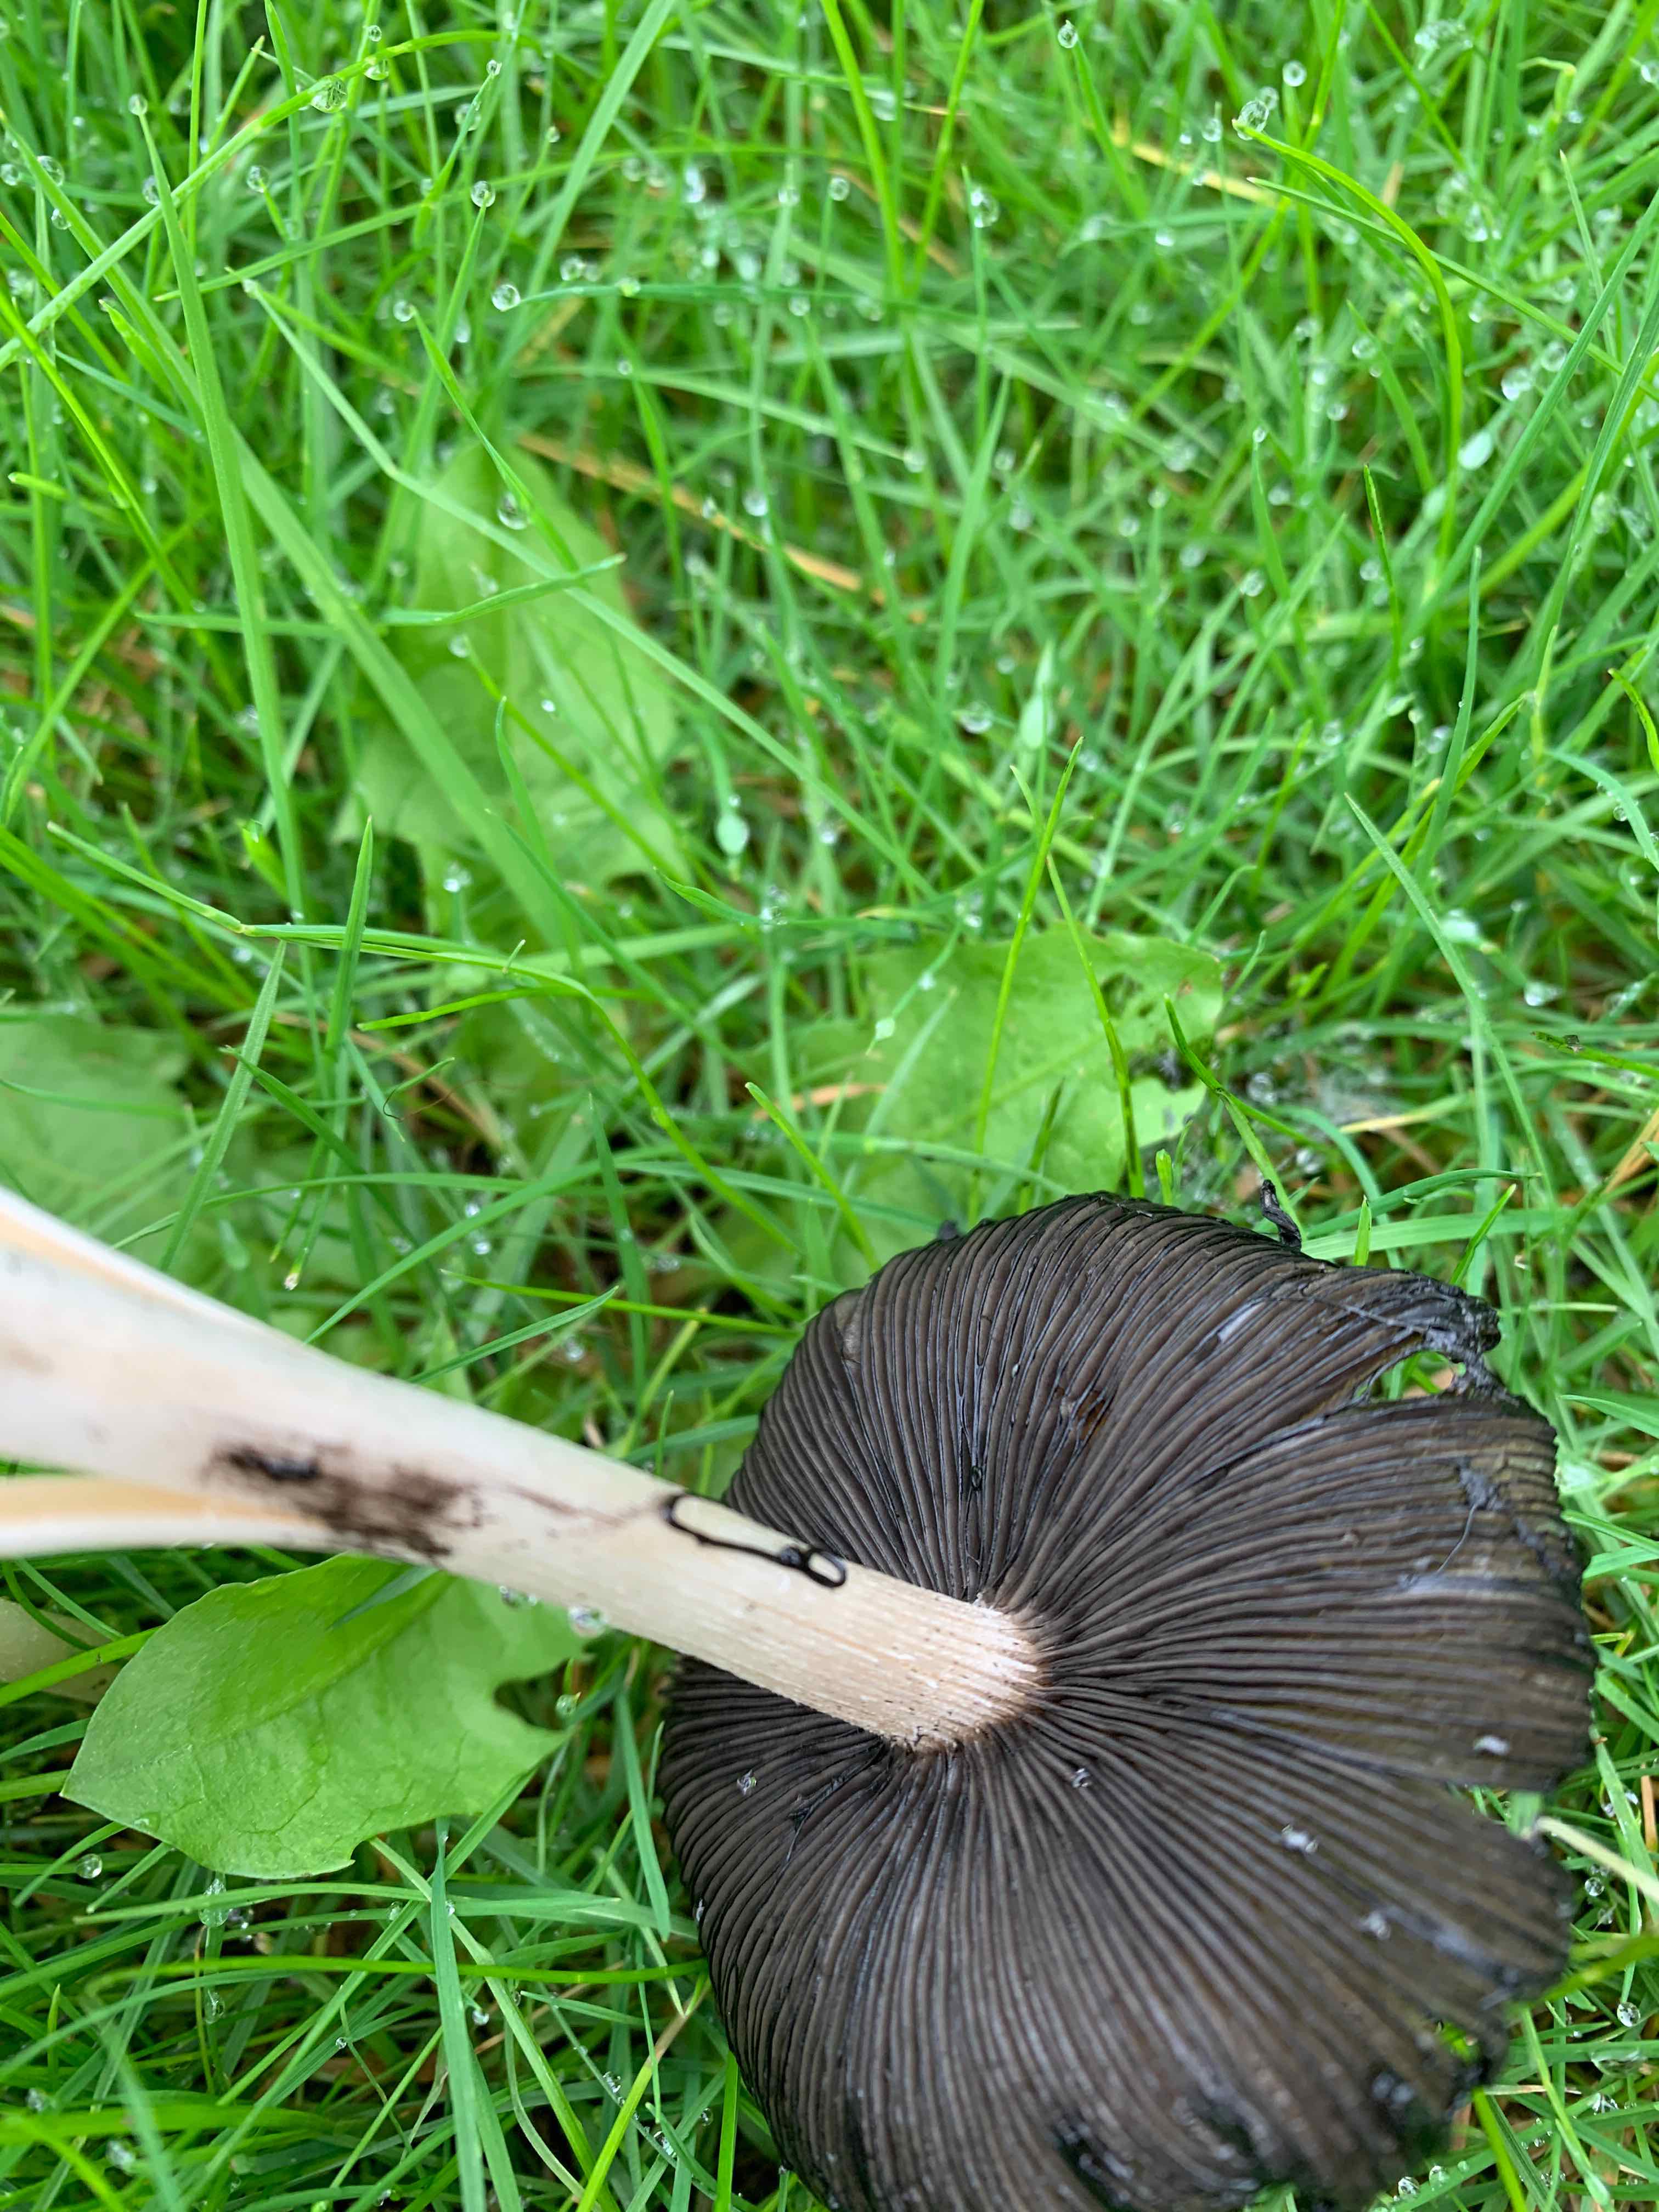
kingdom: Fungi
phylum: Basidiomycota
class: Agaricomycetes
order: Agaricales
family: Psathyrellaceae
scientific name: Psathyrellaceae
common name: mørkhatfamilien
